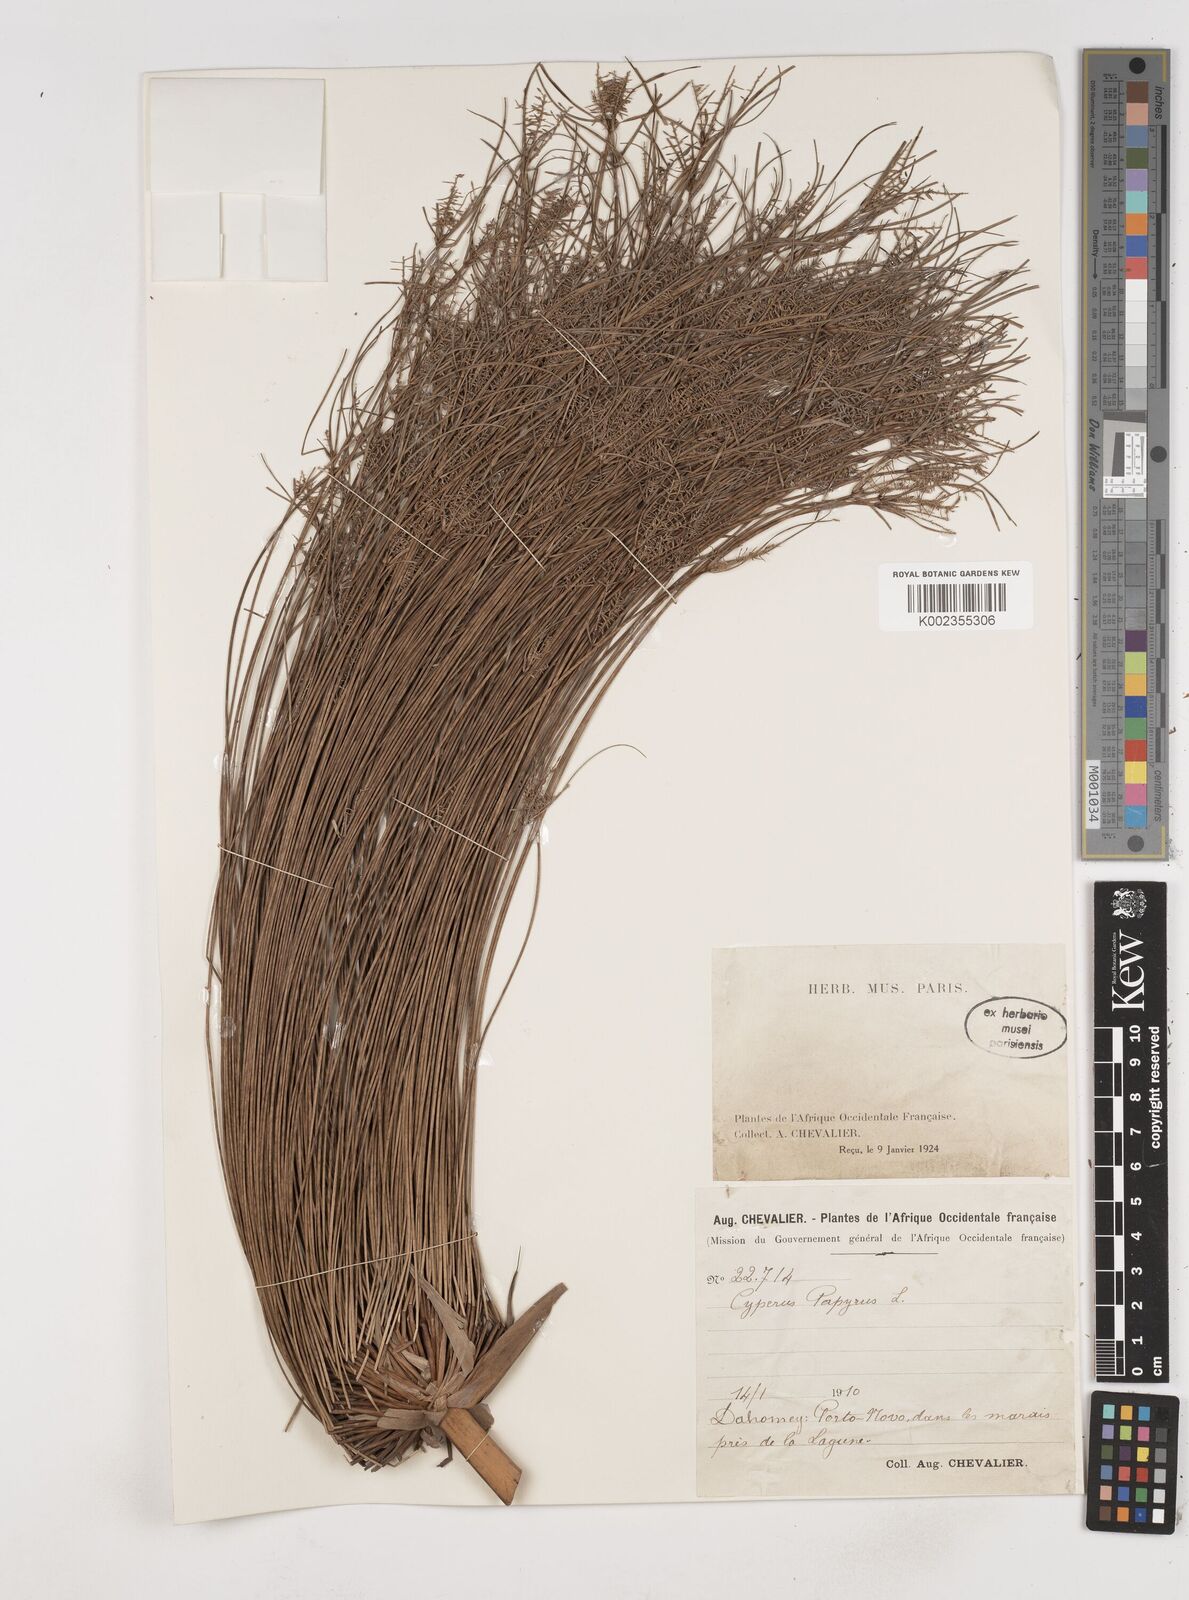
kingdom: Plantae
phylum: Tracheophyta
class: Liliopsida
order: Poales
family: Cyperaceae
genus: Cyperus
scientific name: Cyperus papyrus
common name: Papyrus
